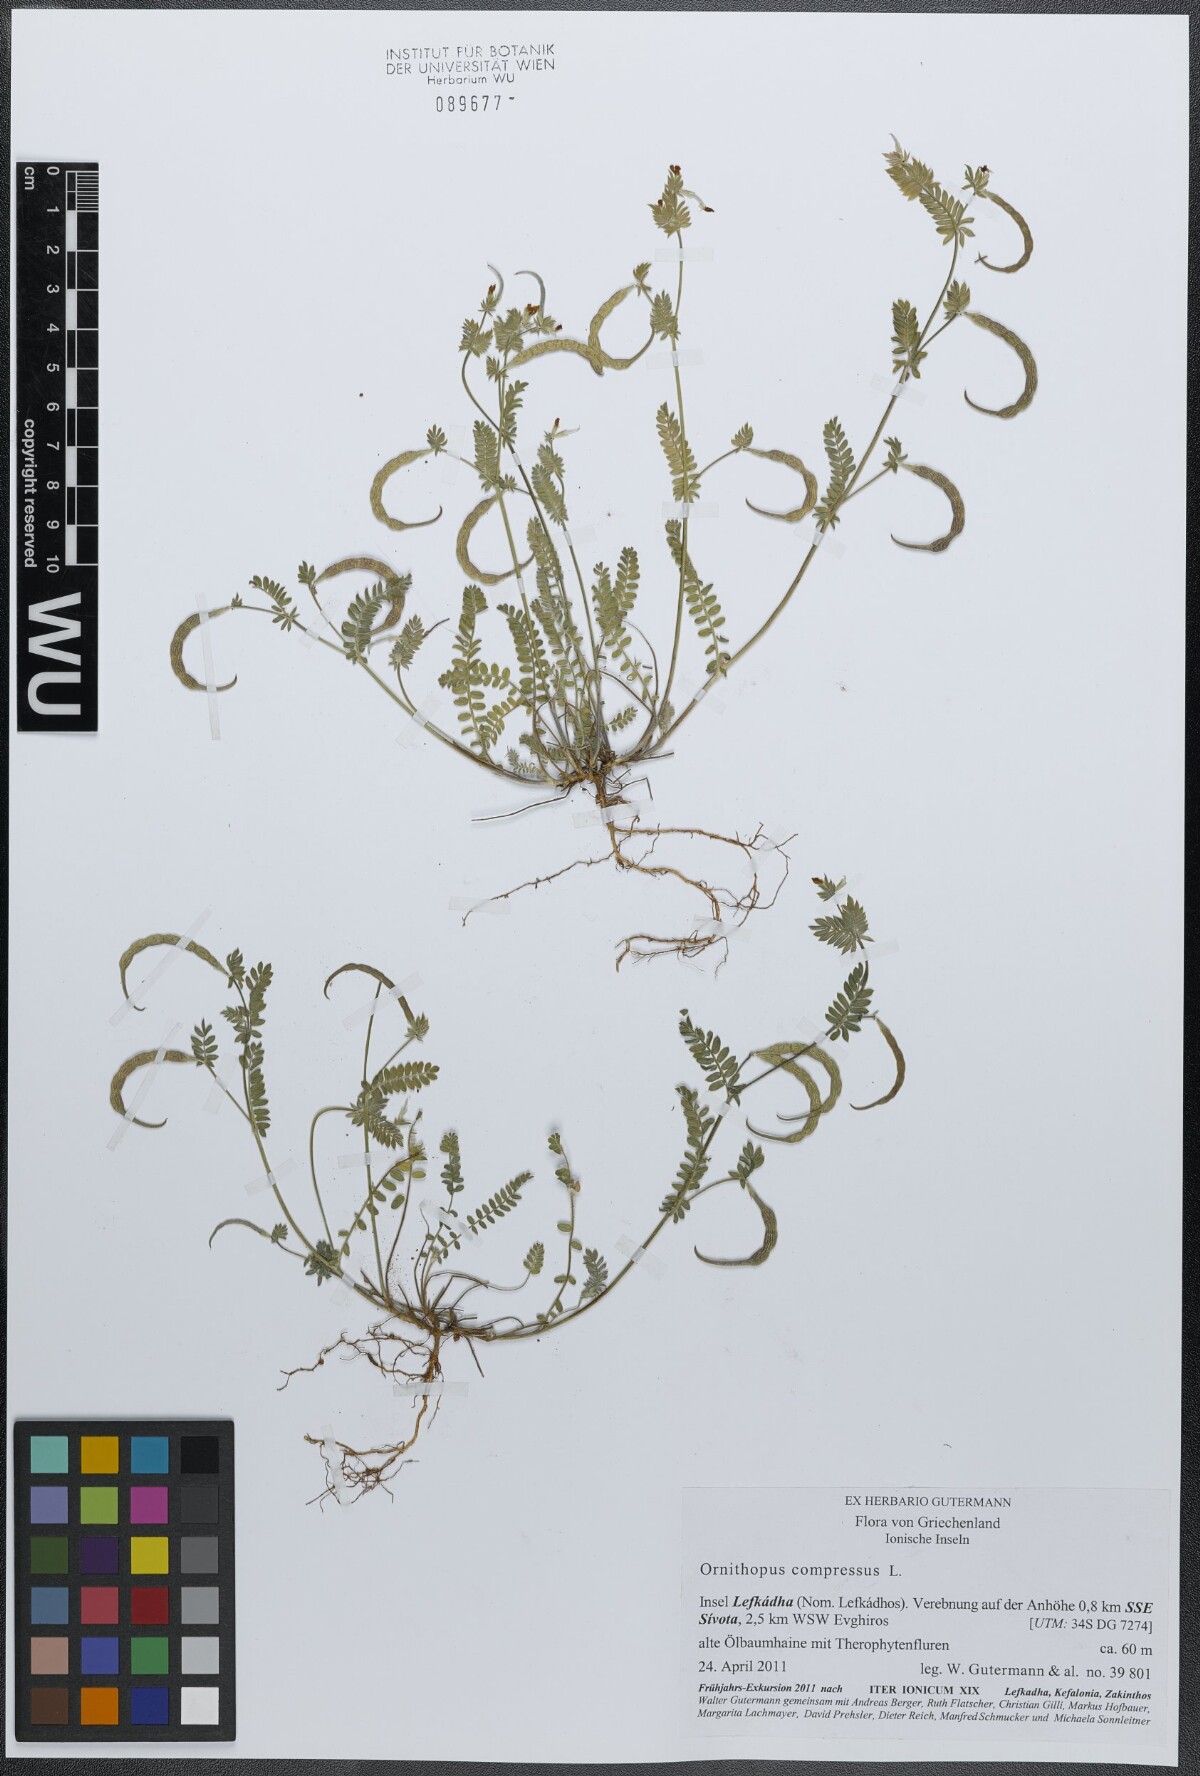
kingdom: Plantae
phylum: Tracheophyta
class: Magnoliopsida
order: Fabales
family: Fabaceae
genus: Ornithopus
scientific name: Ornithopus compressus
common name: Yellow serradella
